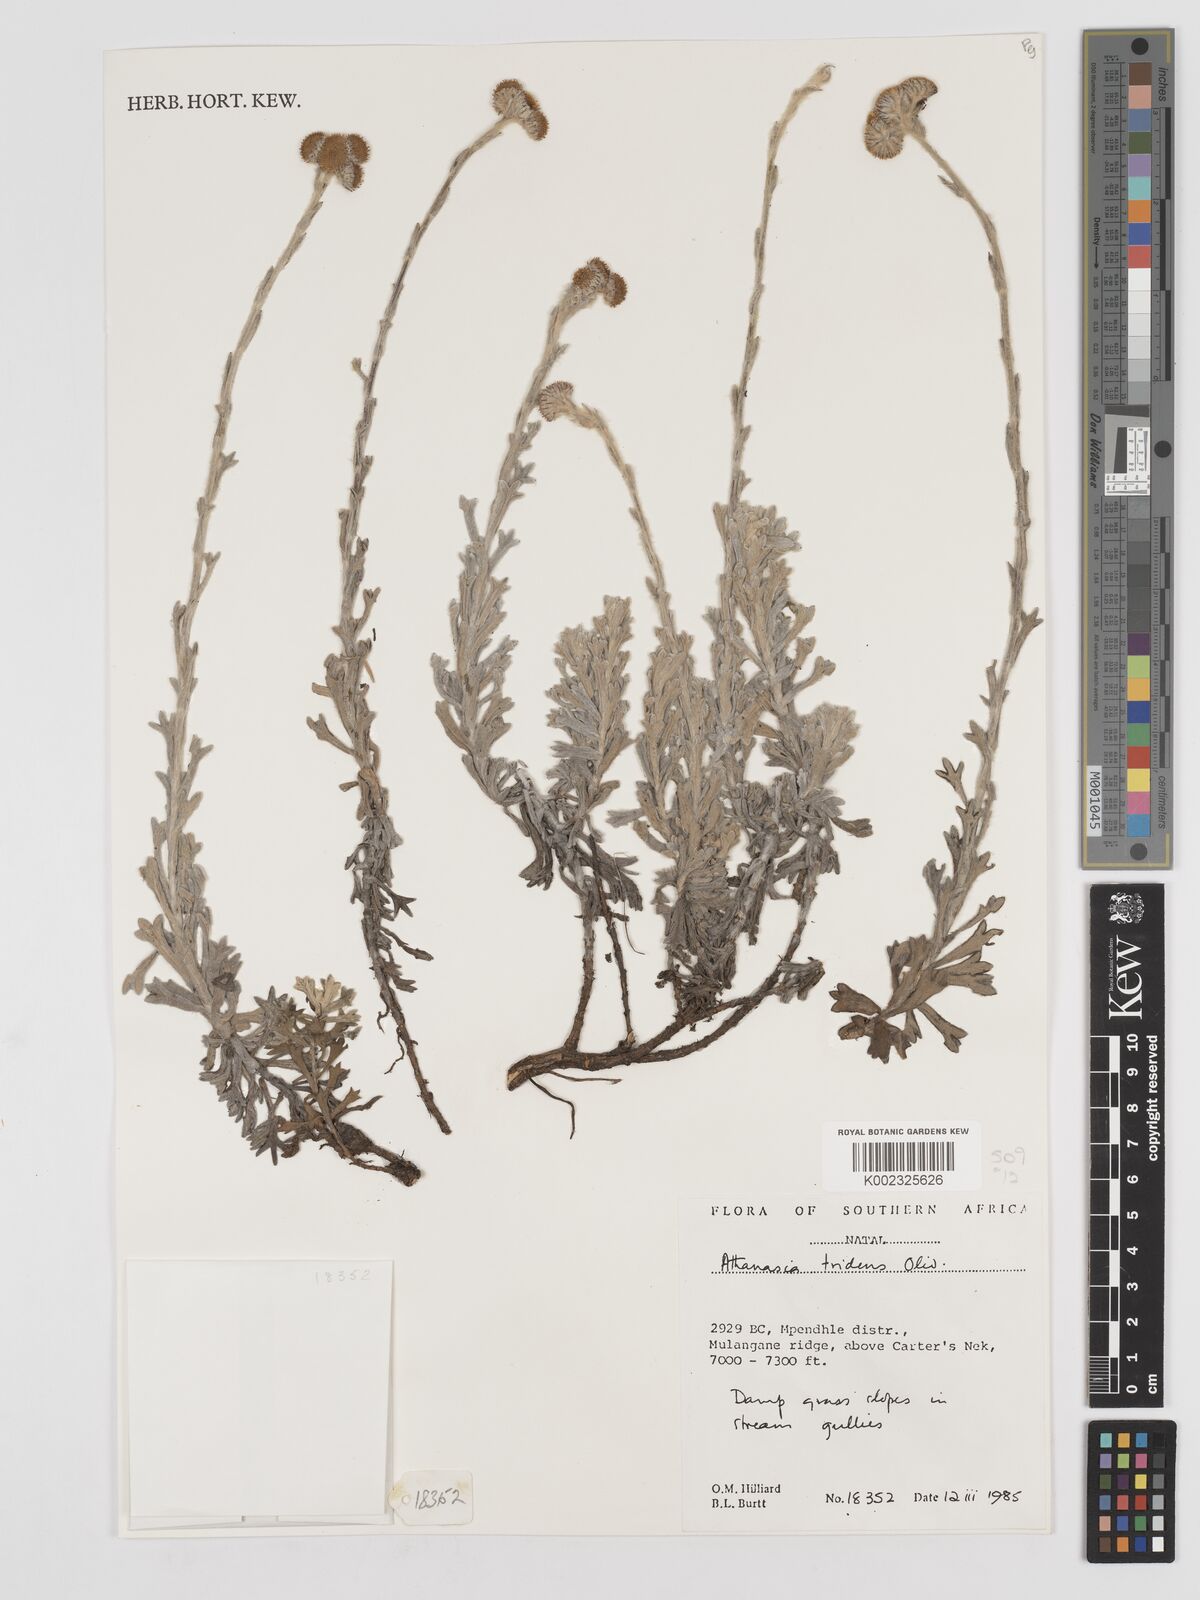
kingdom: Plantae
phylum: Tracheophyta
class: Magnoliopsida
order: Asterales
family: Asteraceae
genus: Inulanthera
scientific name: Inulanthera tridens
